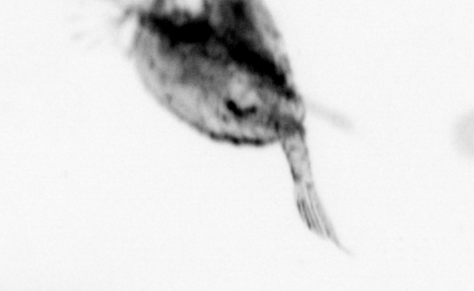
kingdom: Animalia
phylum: Arthropoda
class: Copepoda
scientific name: Copepoda
